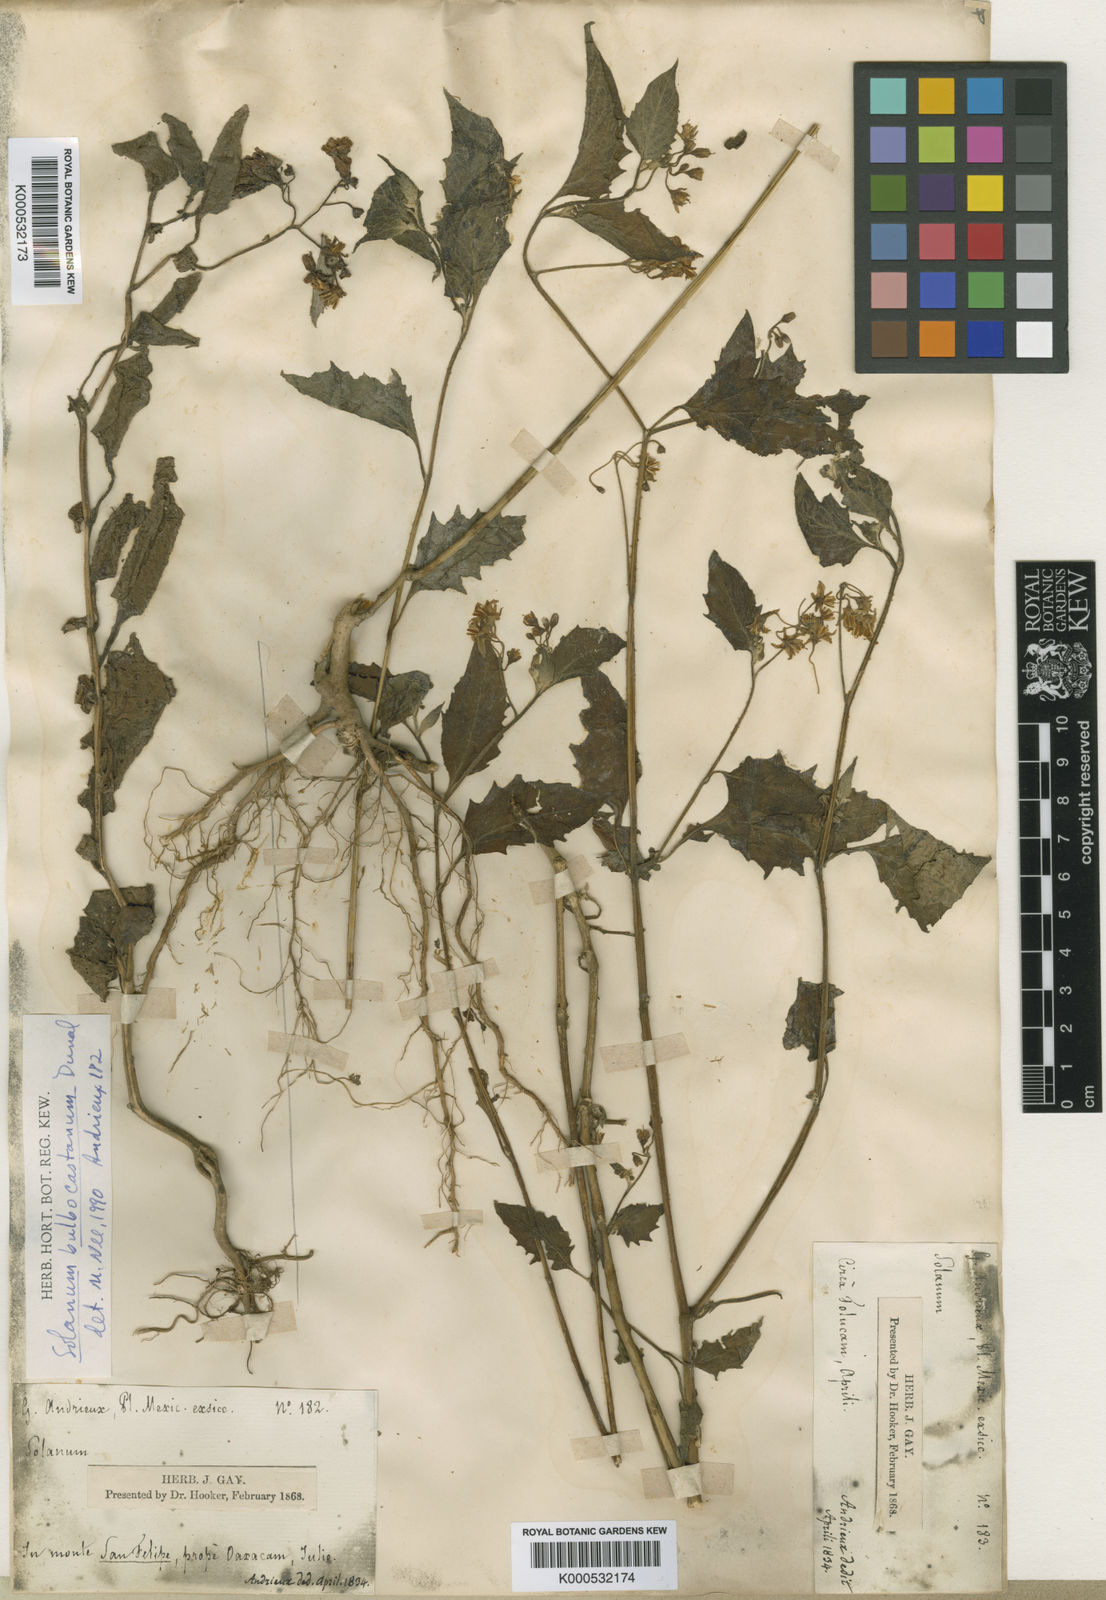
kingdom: Plantae
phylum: Tracheophyta
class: Magnoliopsida
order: Solanales
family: Solanaceae
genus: Solanum
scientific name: Solanum bulbocastanum
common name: Ornamental nightshade
